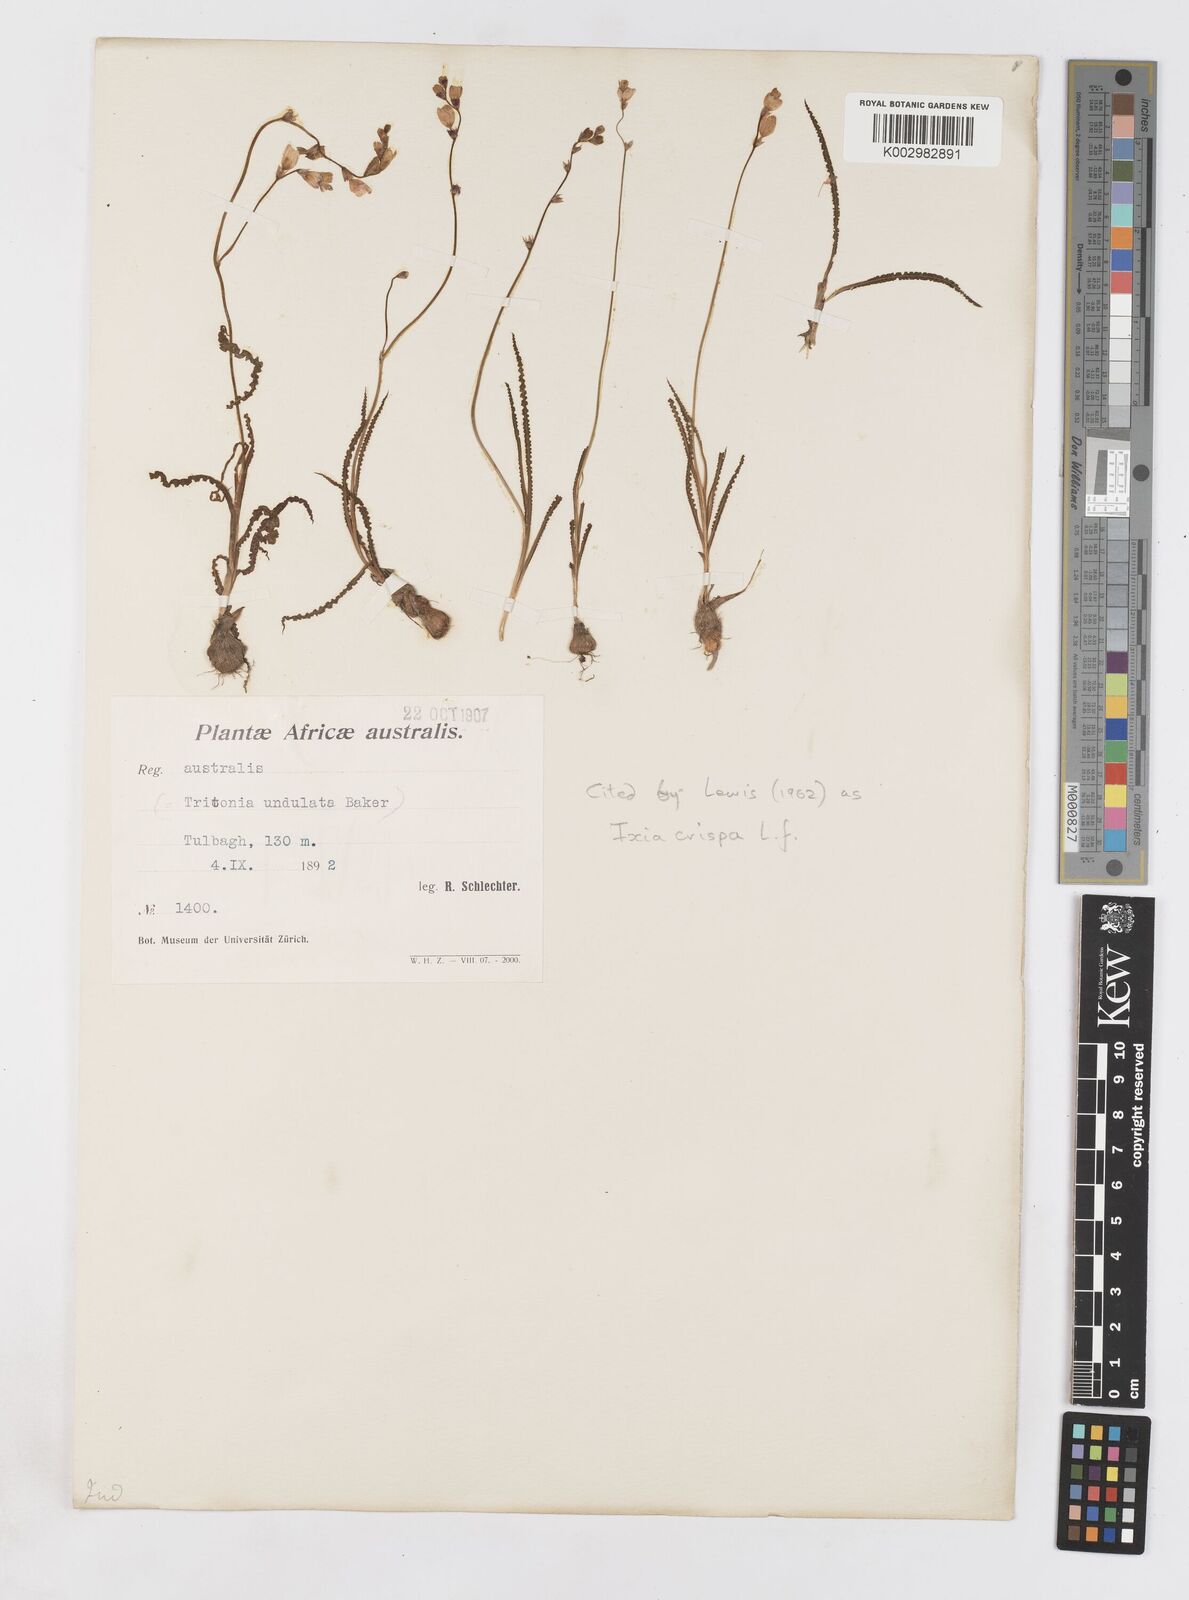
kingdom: Plantae
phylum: Tracheophyta
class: Liliopsida
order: Asparagales
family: Iridaceae
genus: Ixia
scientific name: Ixia erubescens
